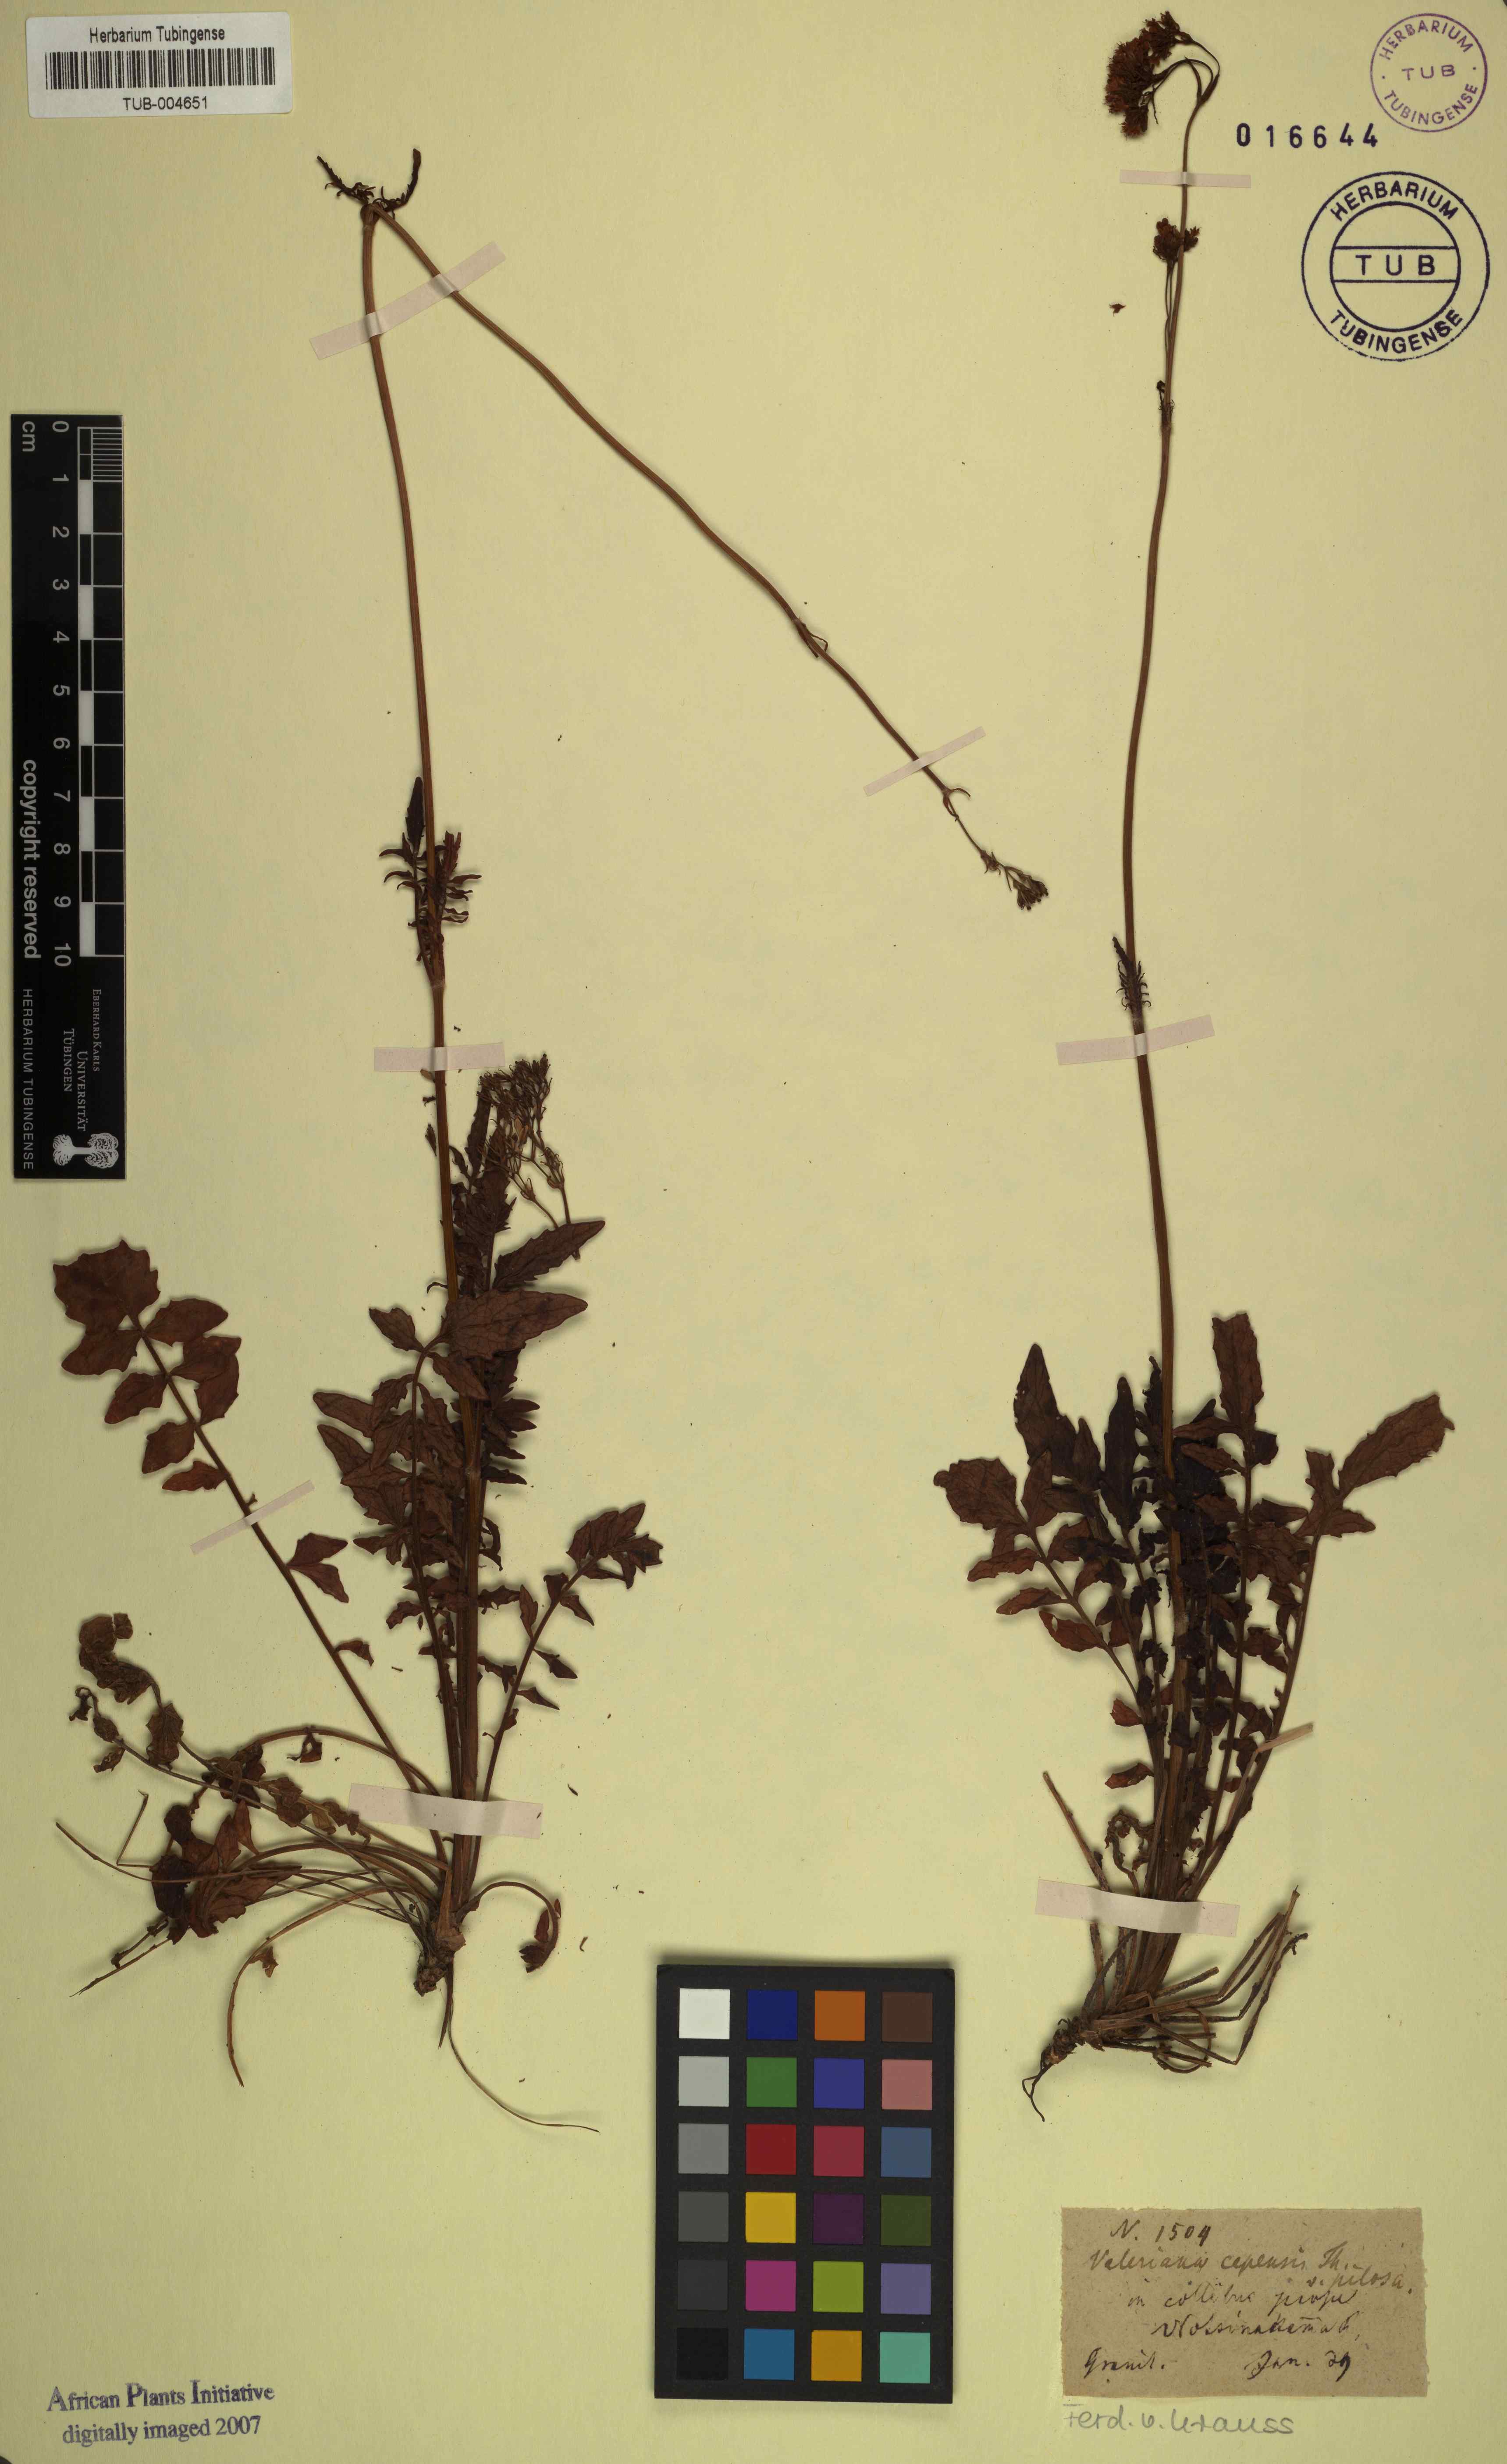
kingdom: Plantae
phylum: Tracheophyta
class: Magnoliopsida
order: Dipsacales
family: Caprifoliaceae
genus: Valeriana
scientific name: Valeriana capensis
